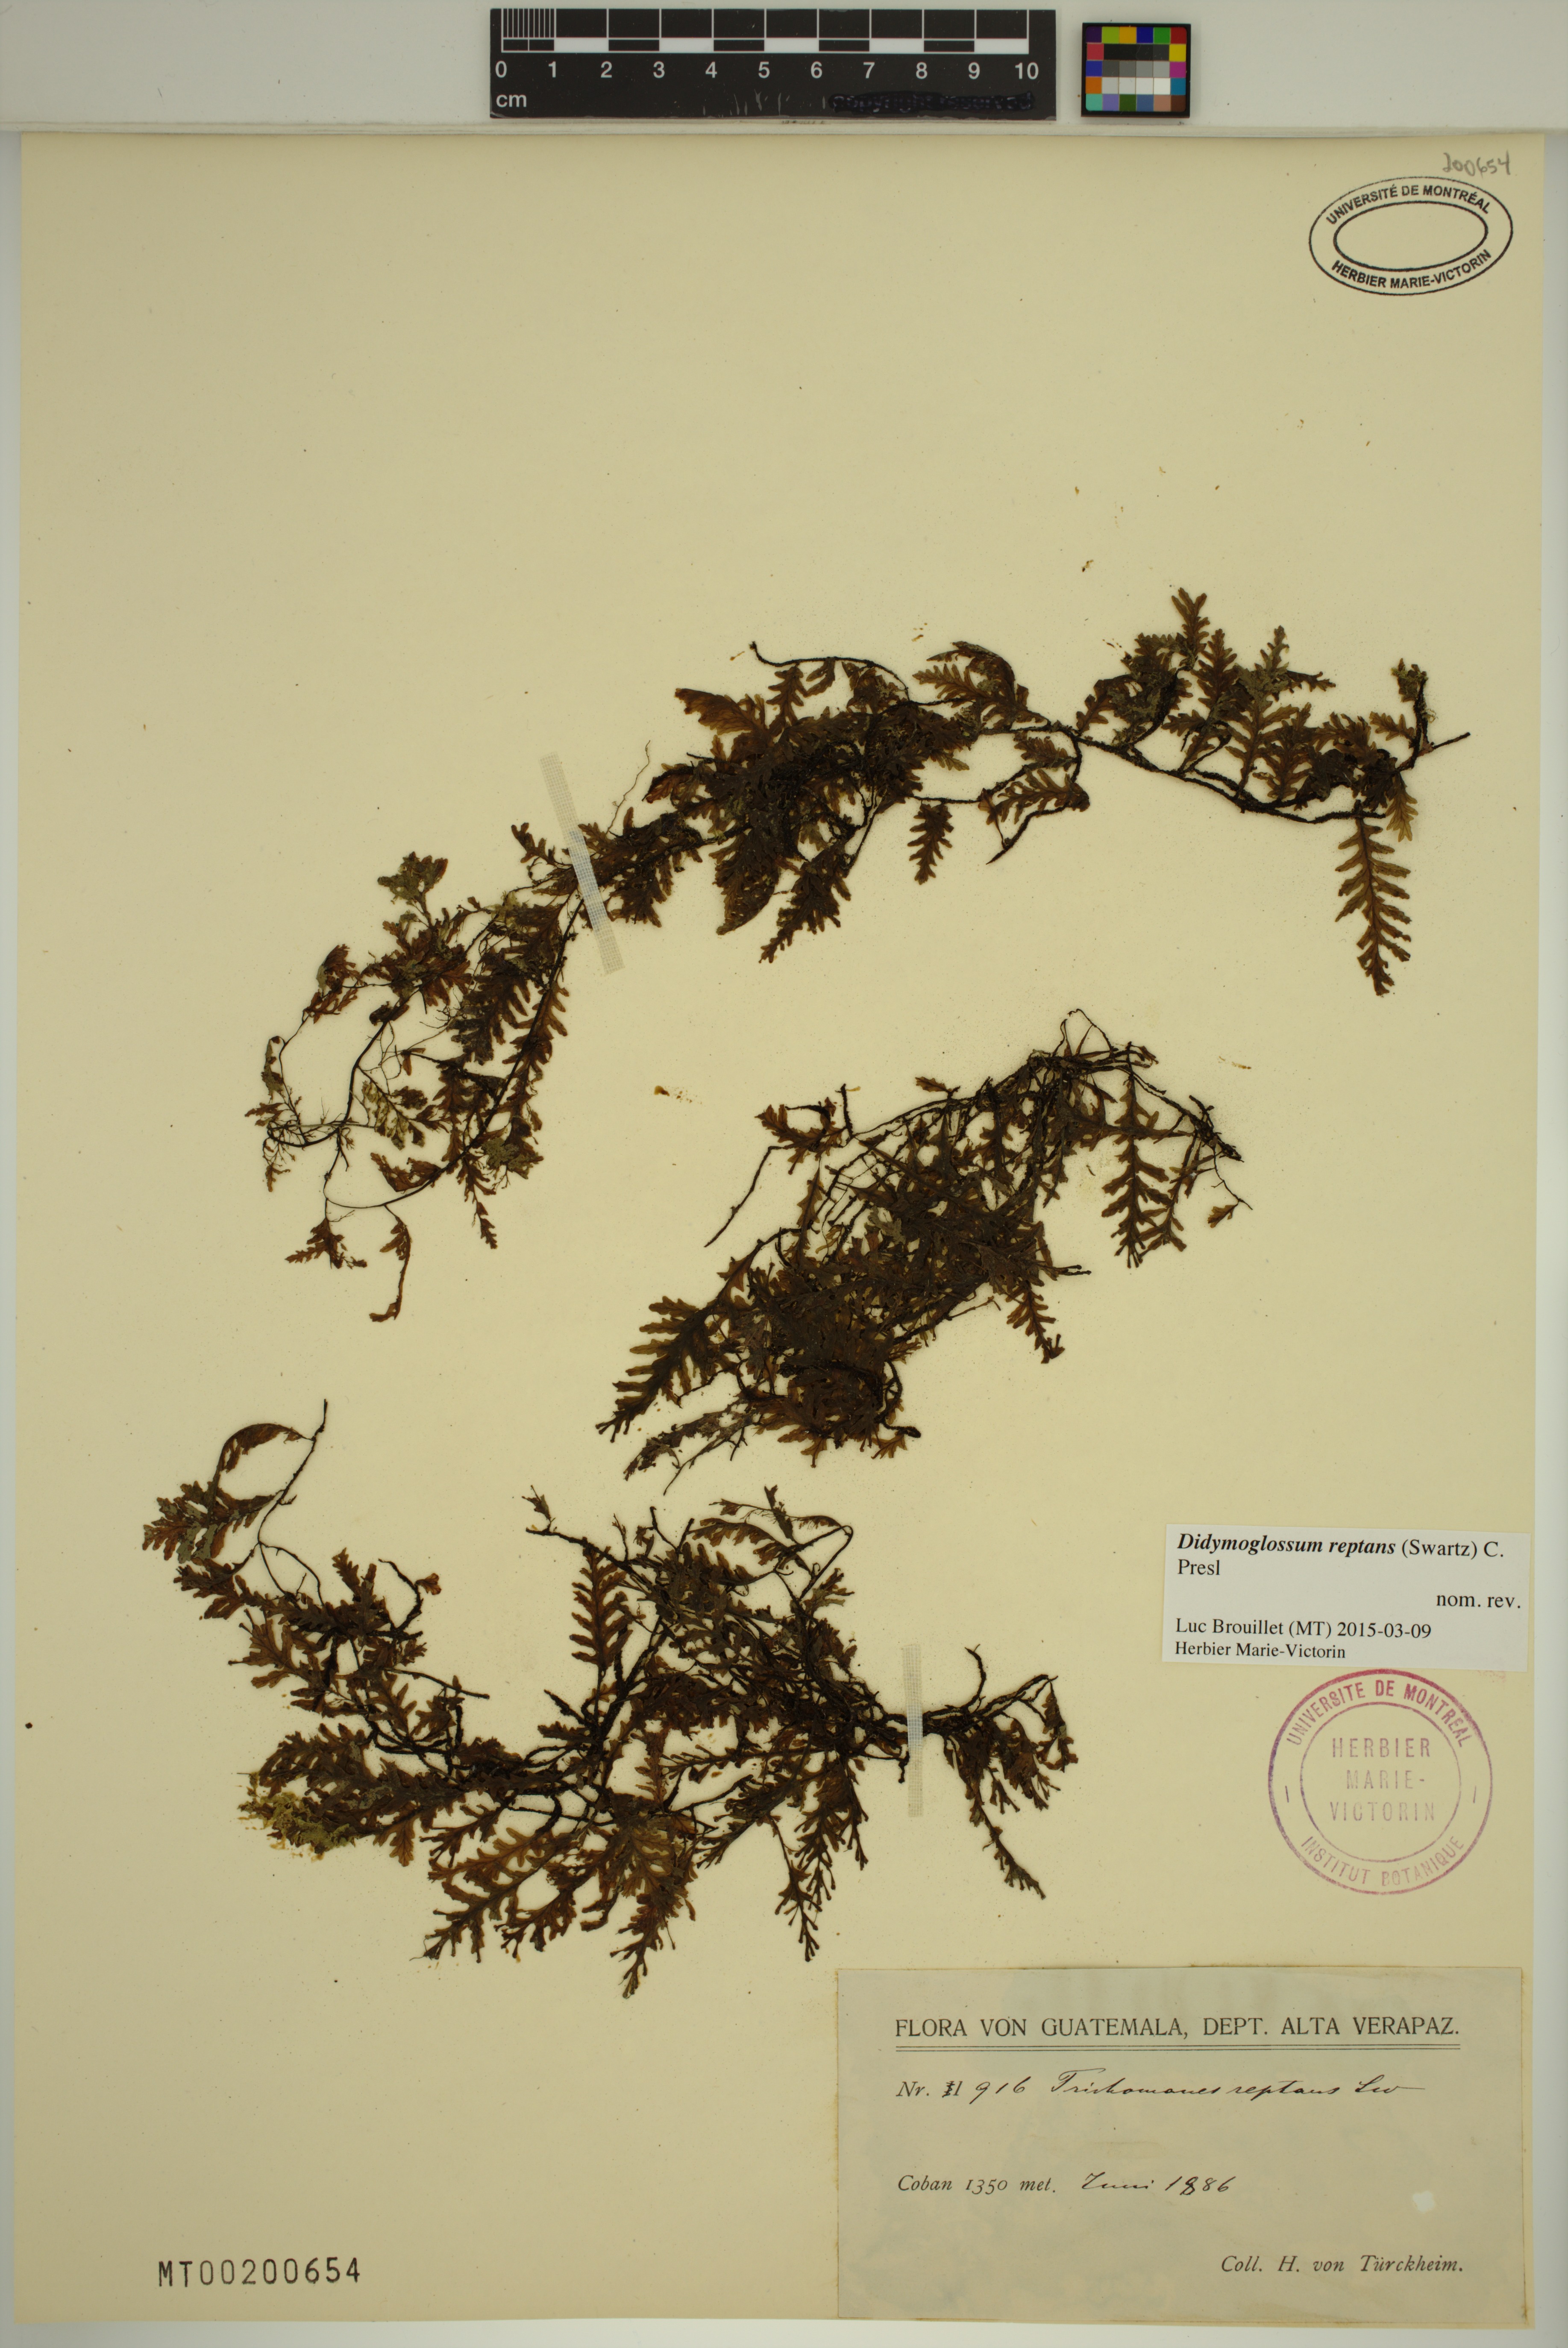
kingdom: Plantae
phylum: Tracheophyta
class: Polypodiopsida
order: Hymenophyllales
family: Hymenophyllaceae
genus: Didymoglossum
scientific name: Didymoglossum reptans
